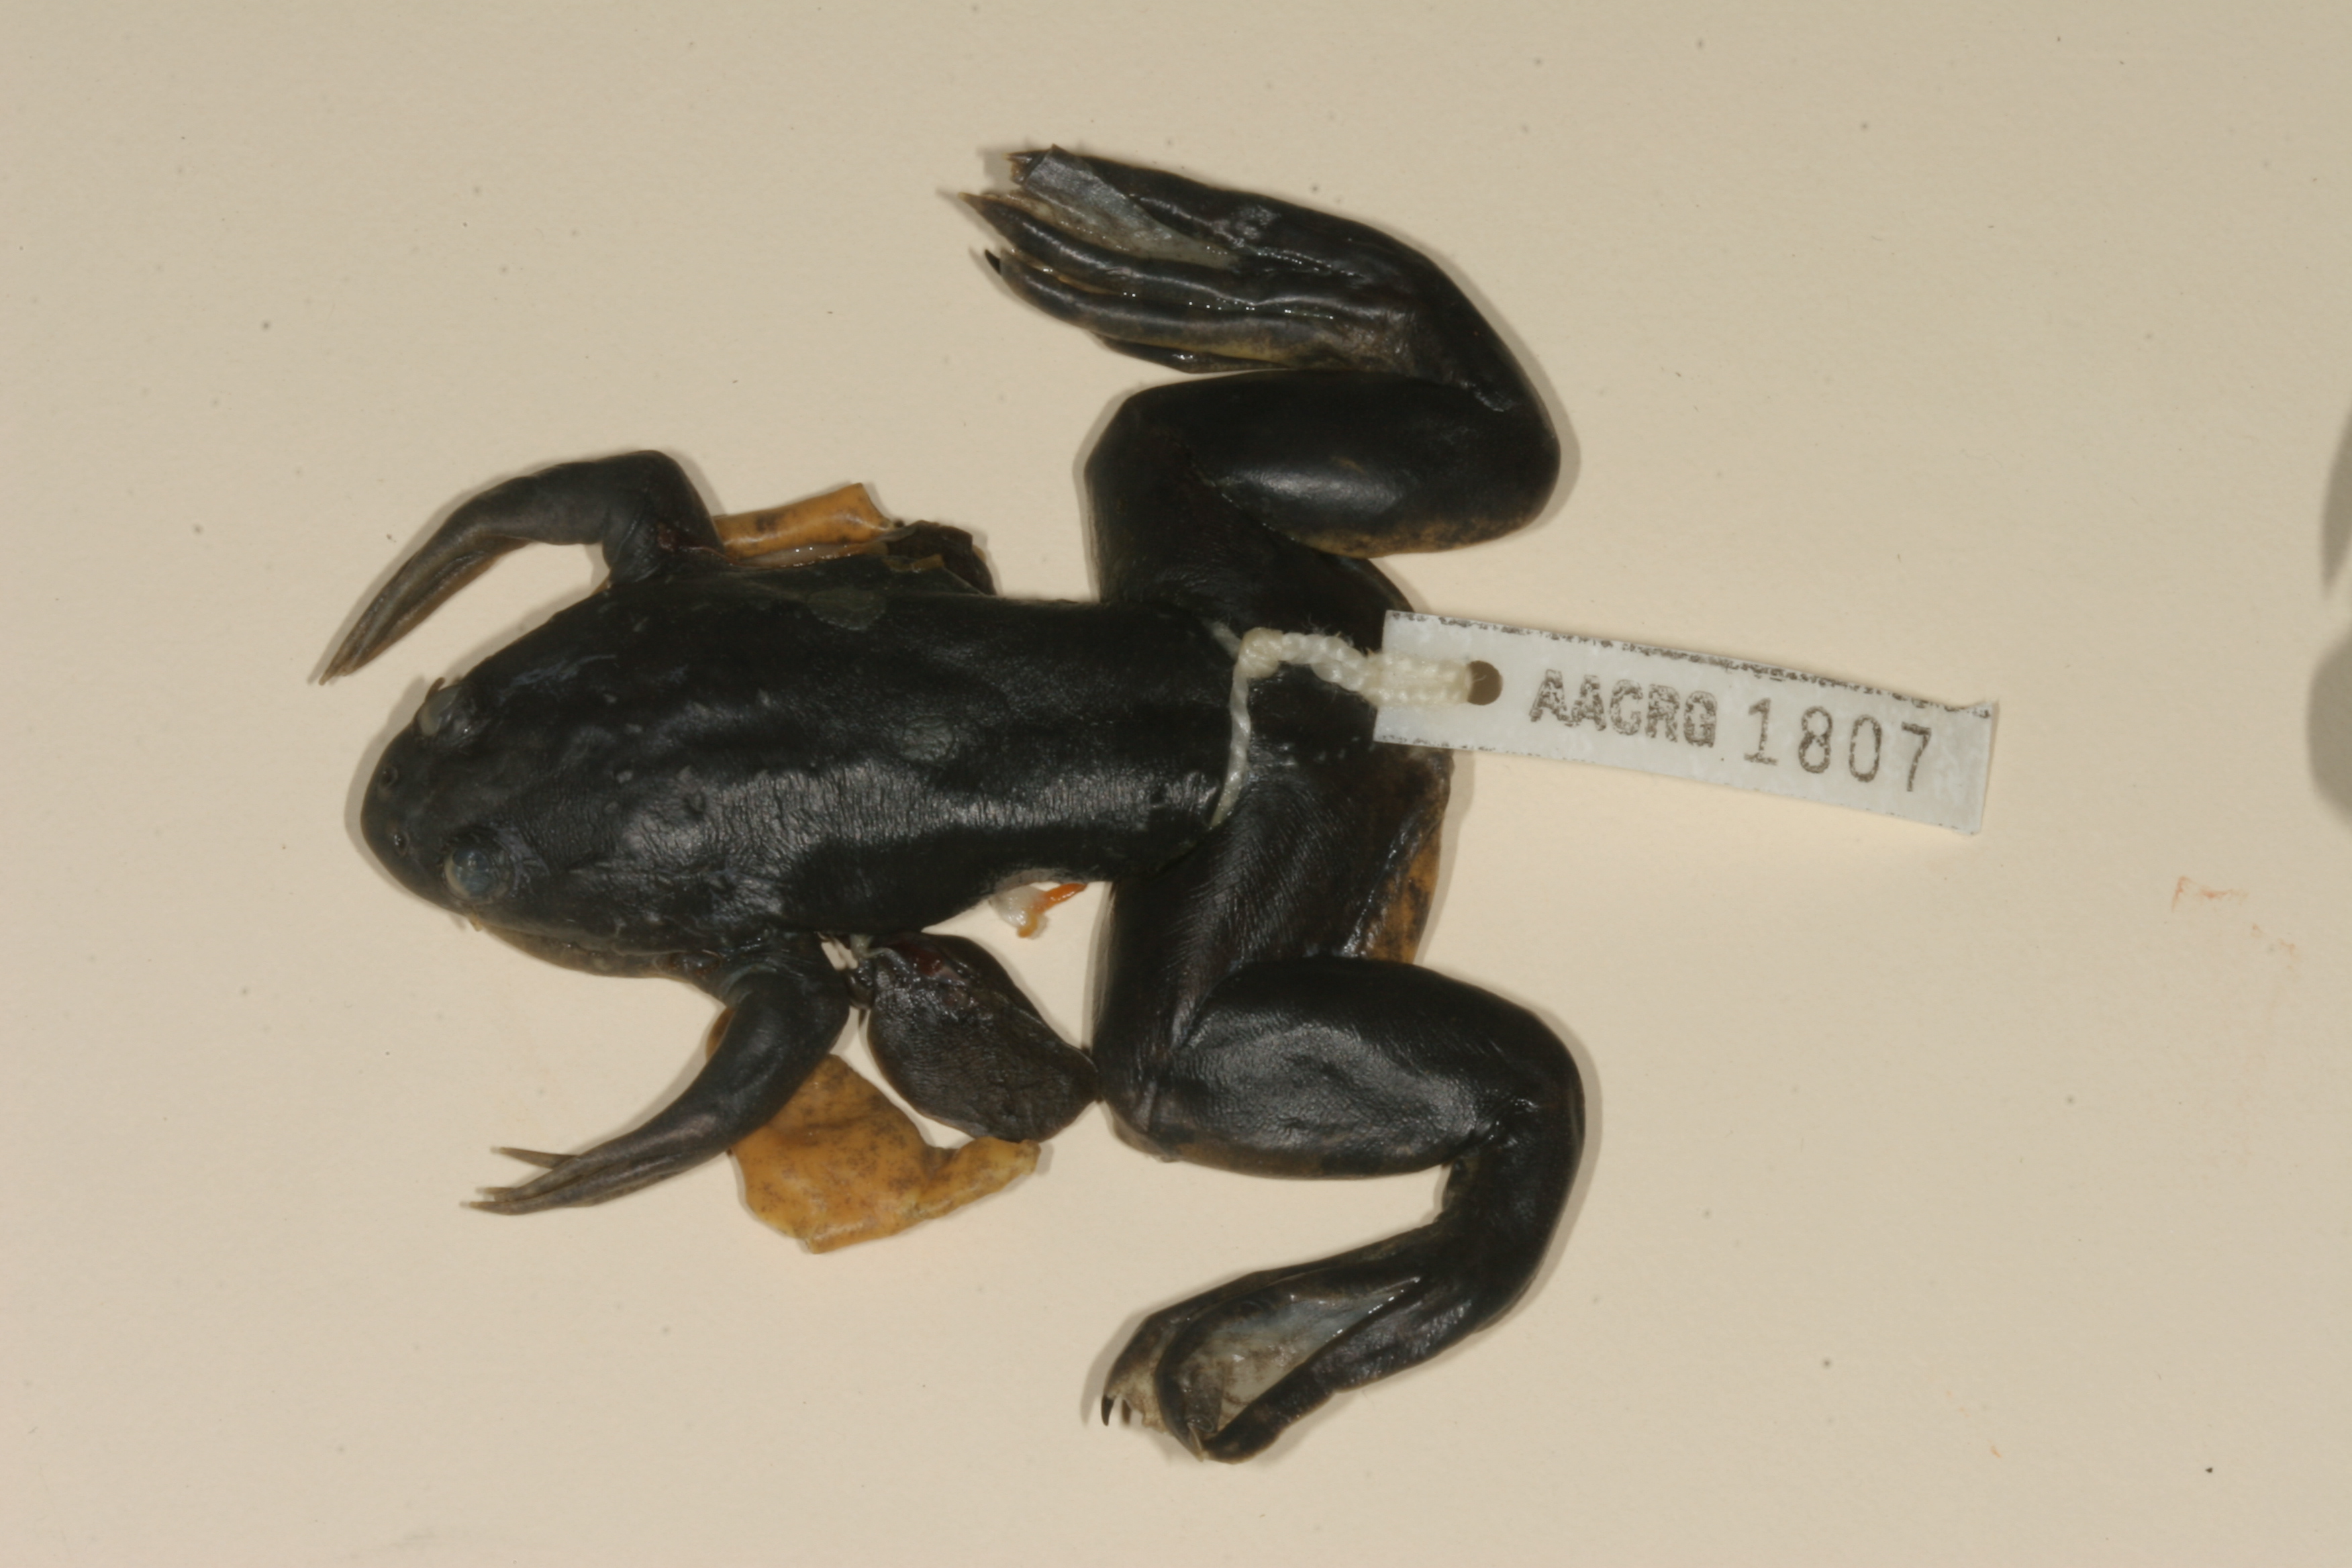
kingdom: Animalia
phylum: Chordata
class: Amphibia
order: Anura
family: Pipidae
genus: Xenopus
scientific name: Xenopus muelleri
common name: Muller's clawed frog
